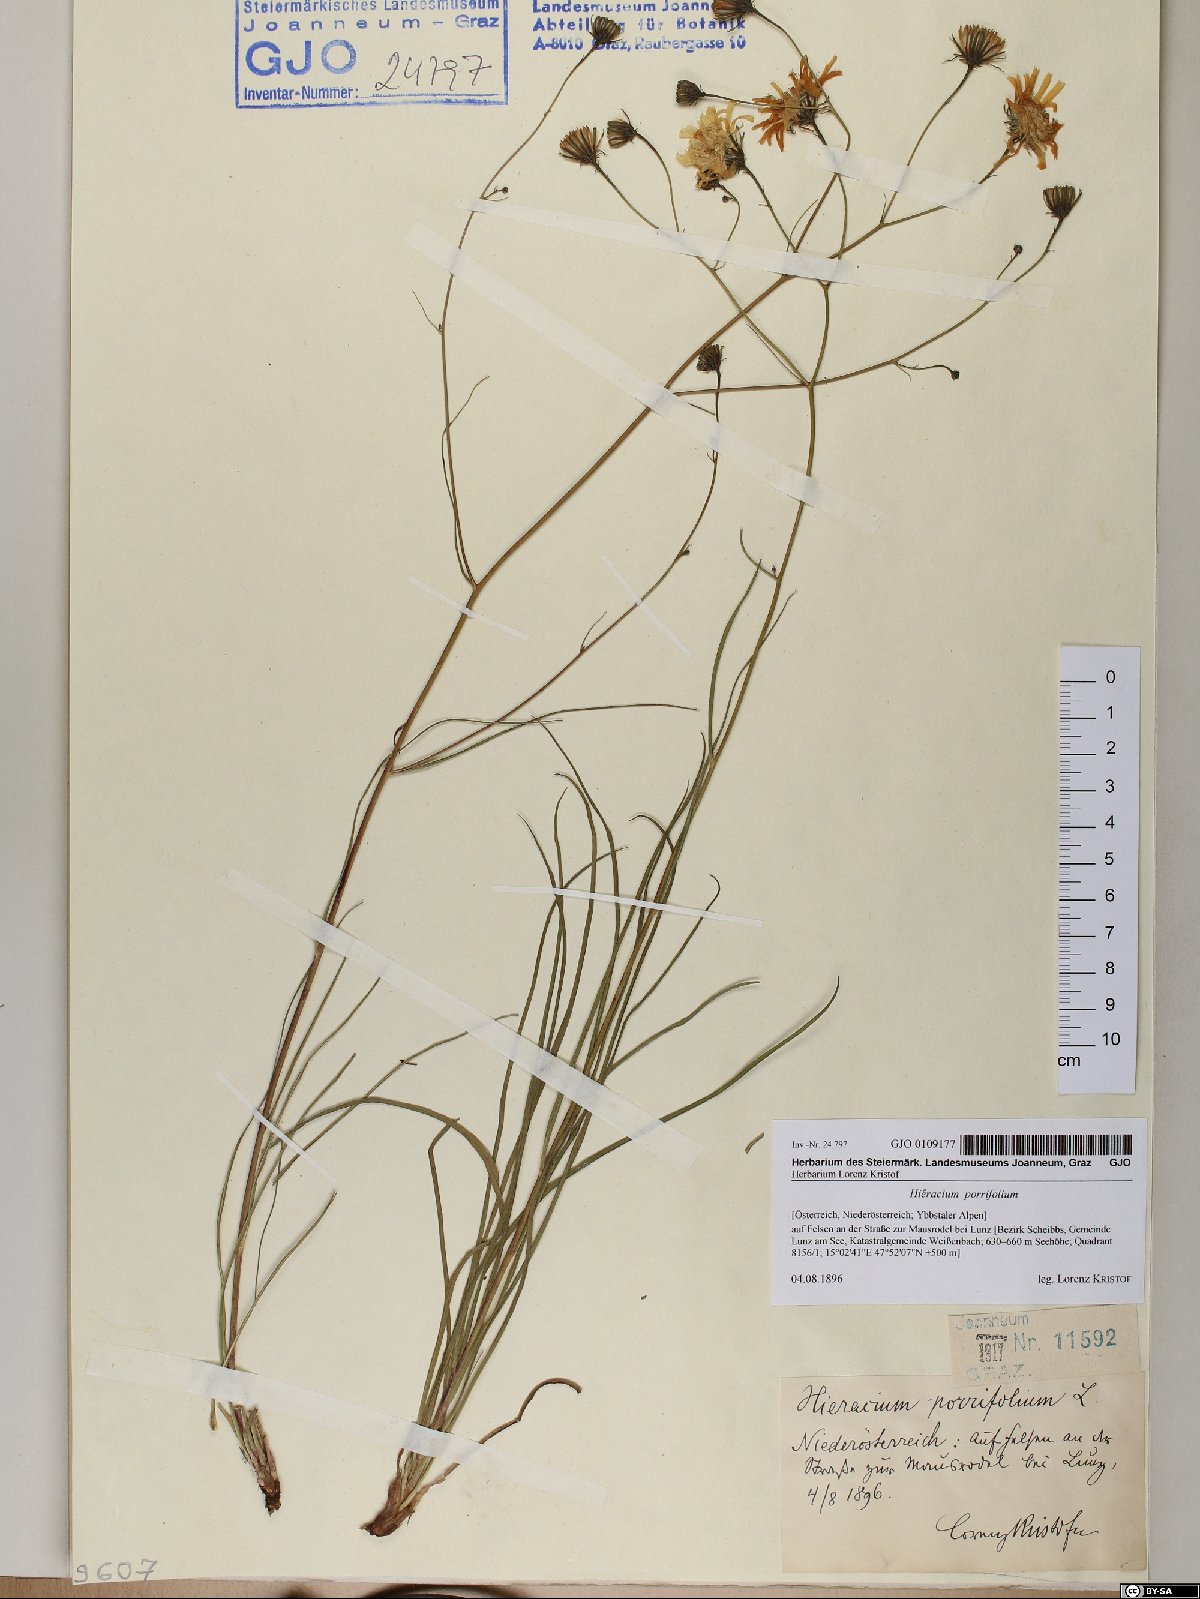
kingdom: Plantae
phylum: Tracheophyta
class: Magnoliopsida
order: Asterales
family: Asteraceae
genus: Hieracium
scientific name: Hieracium porrifolium
